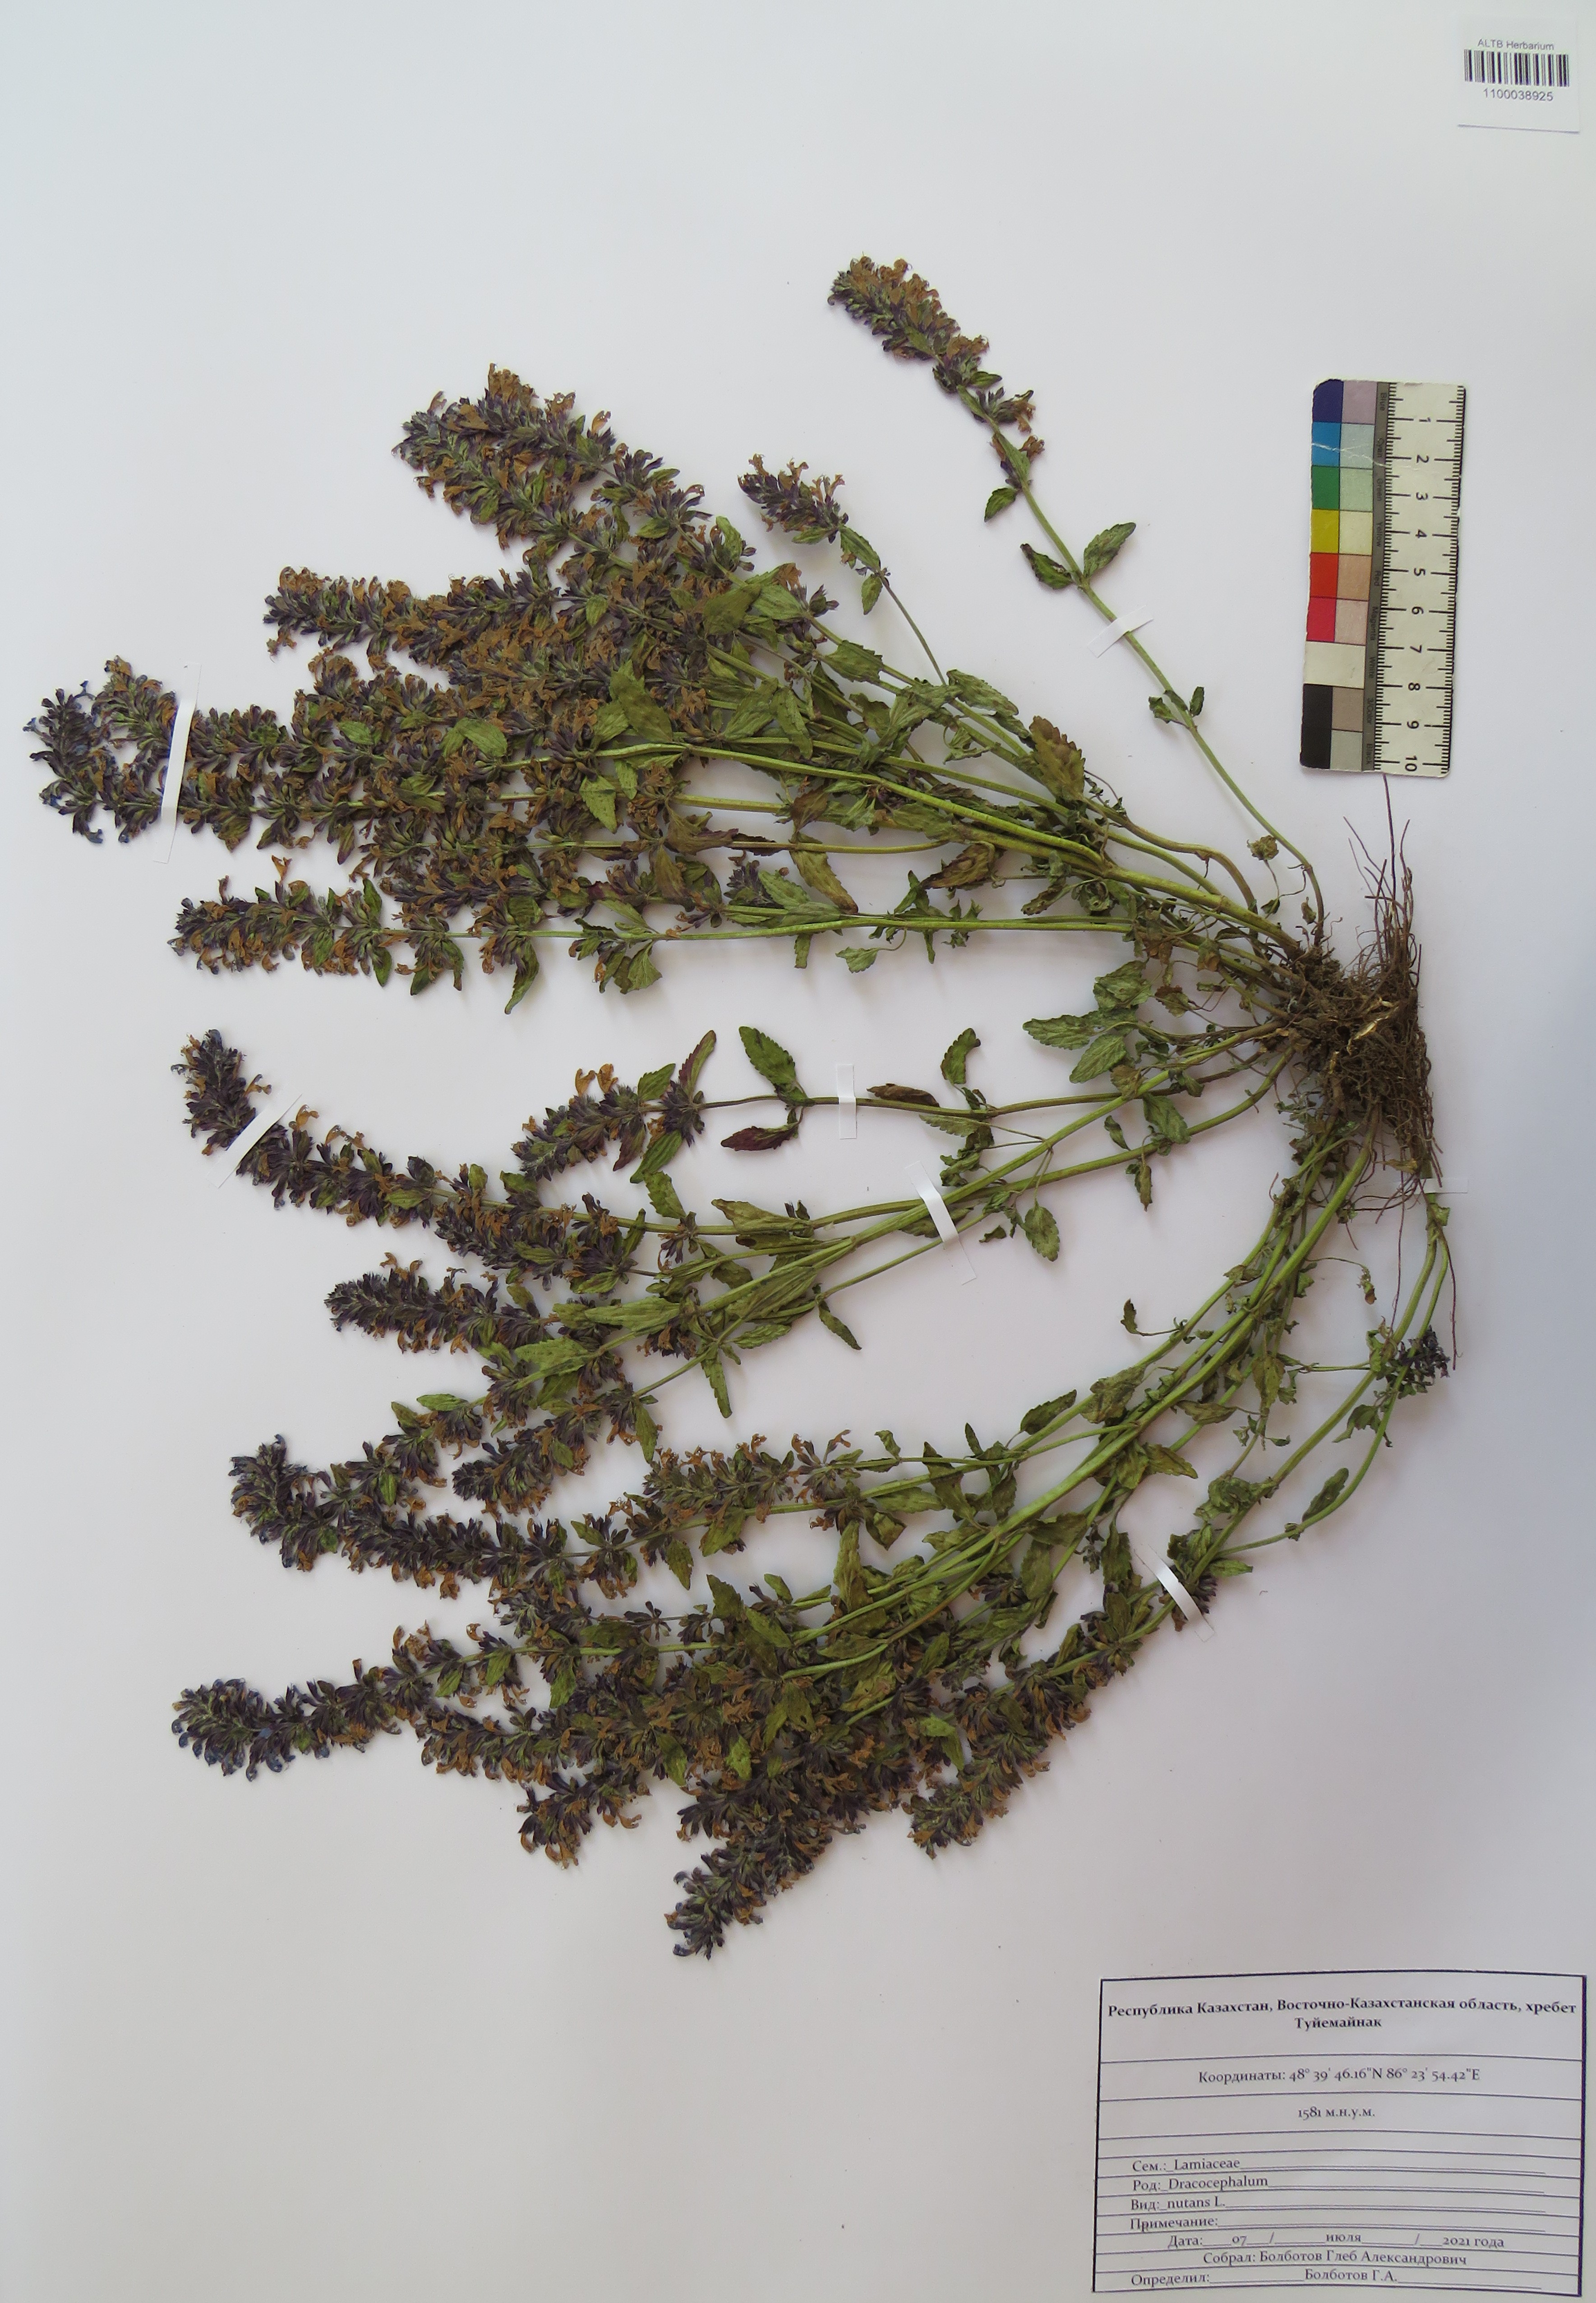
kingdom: Plantae
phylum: Tracheophyta
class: Magnoliopsida
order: Lamiales
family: Lamiaceae
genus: Dracocephalum
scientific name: Dracocephalum nutans
